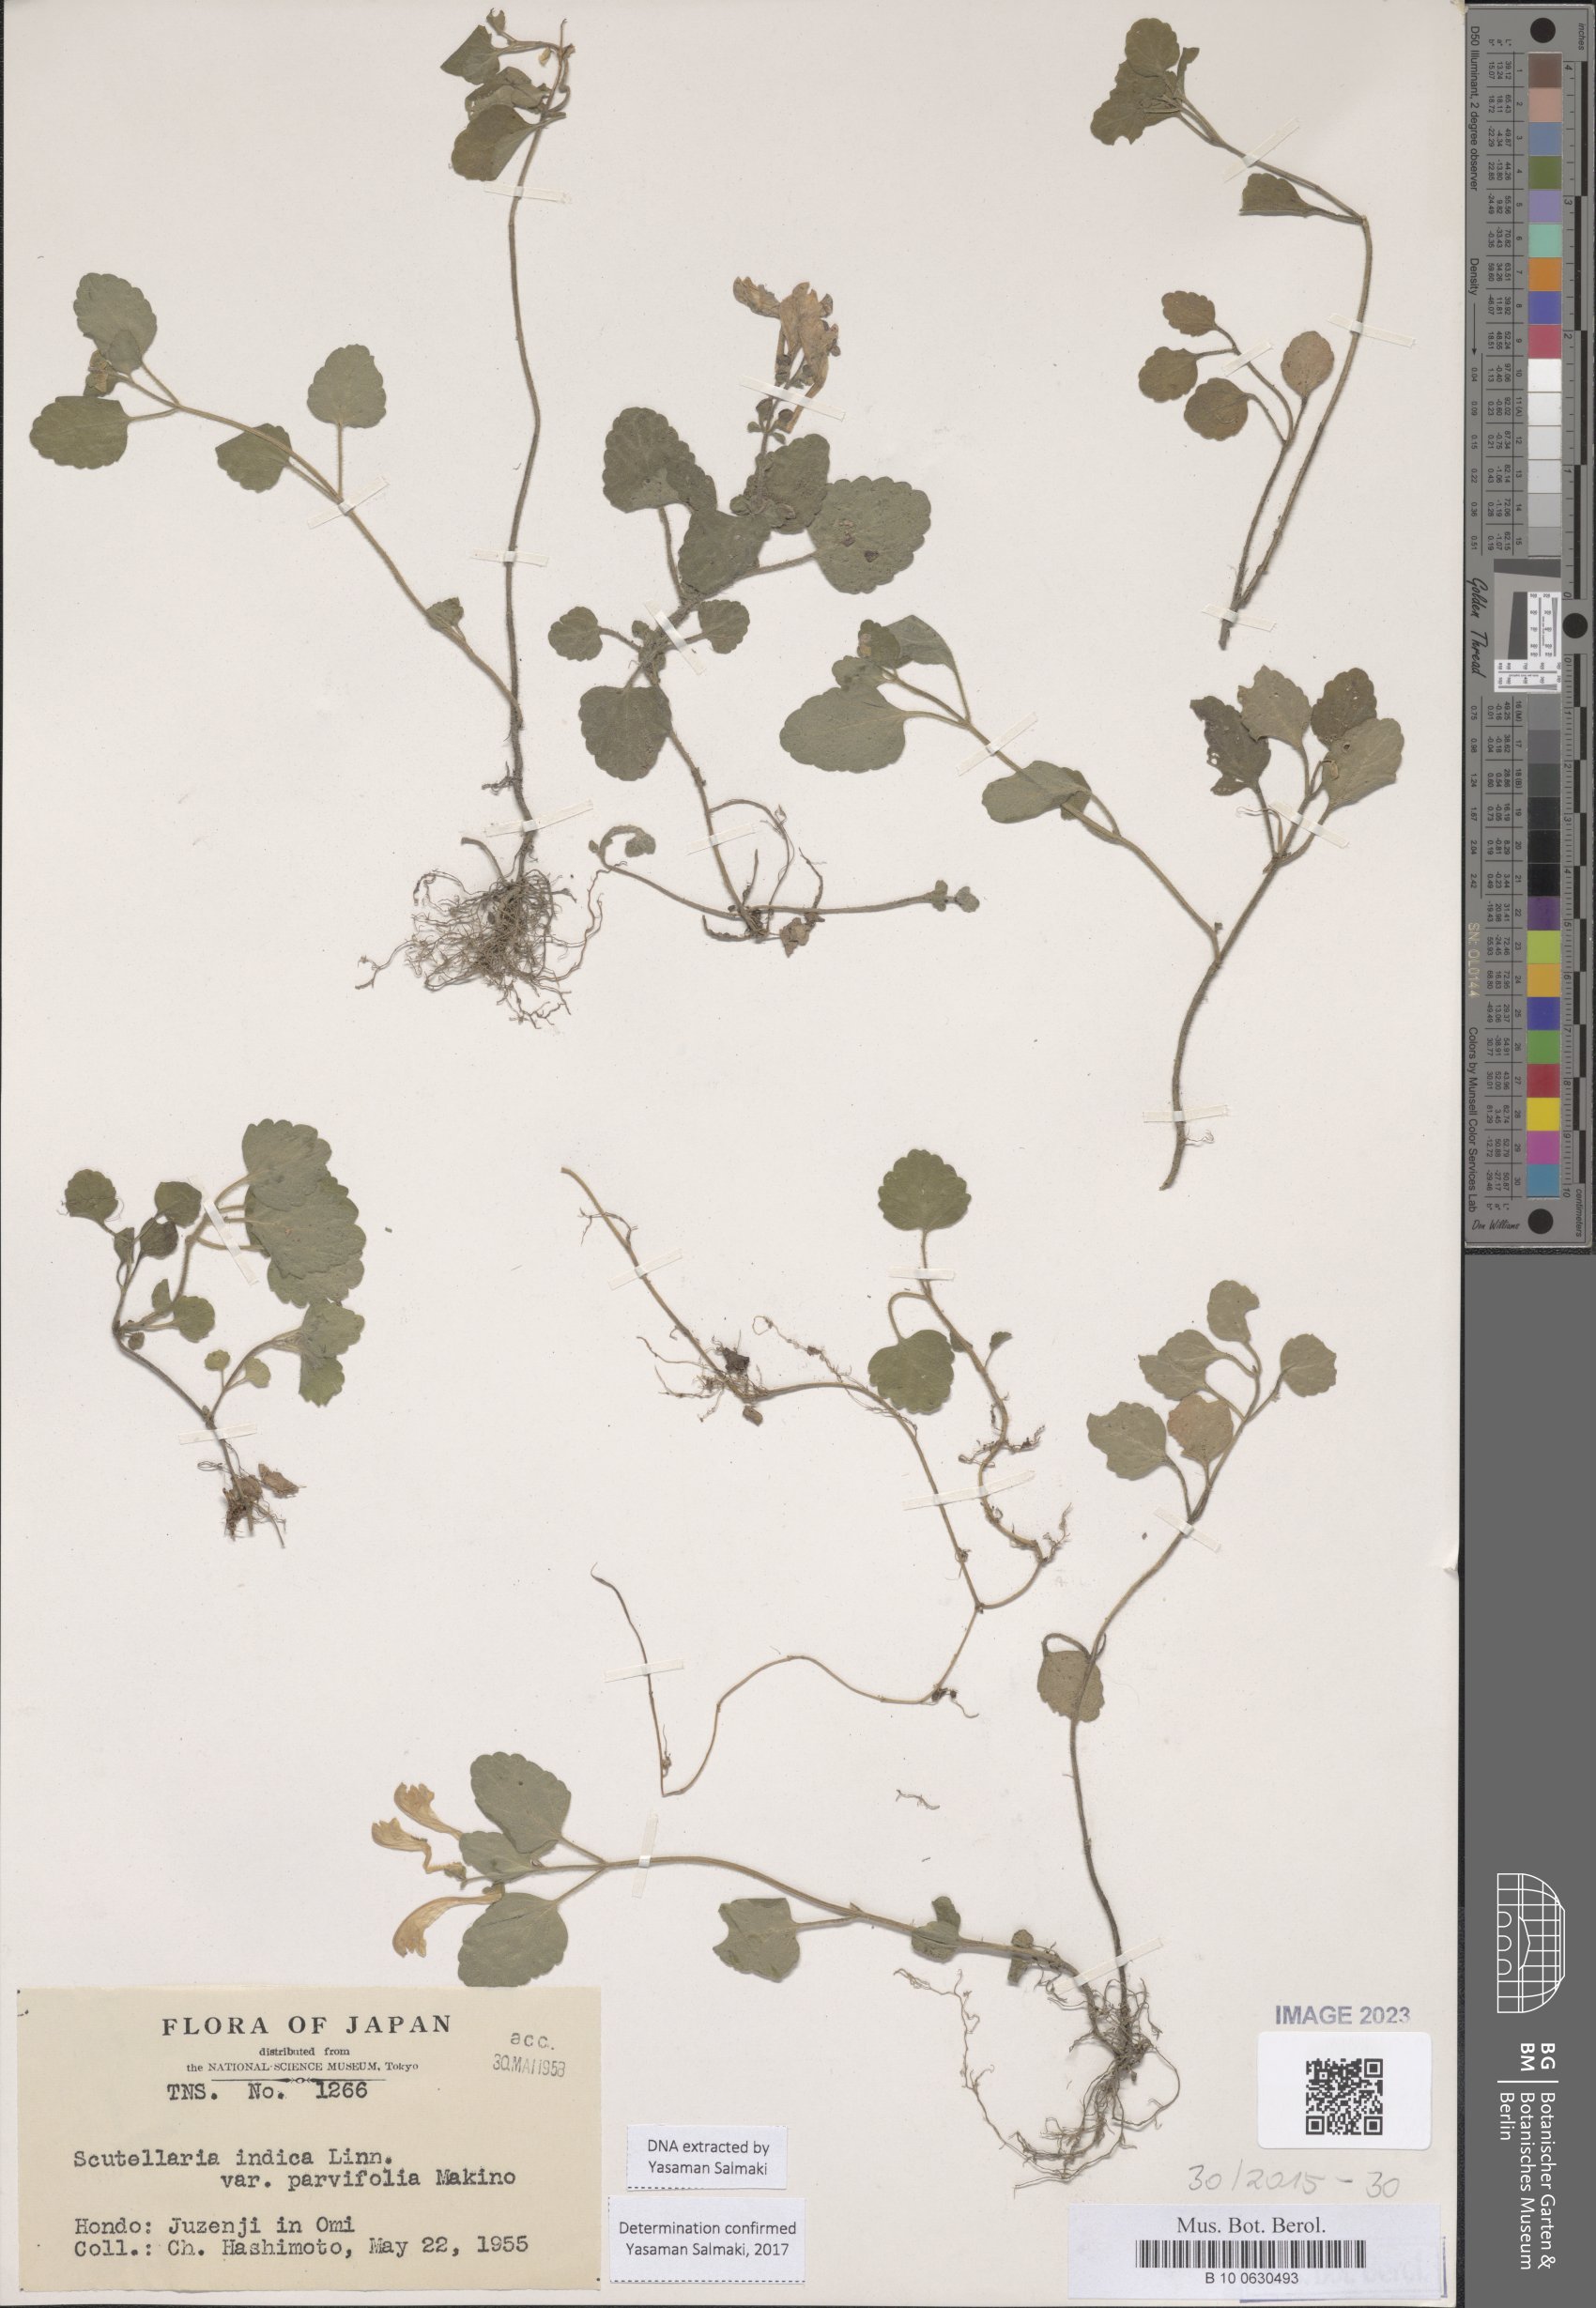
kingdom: Plantae
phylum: Tracheophyta
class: Magnoliopsida
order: Lamiales
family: Lamiaceae
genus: Scutellaria
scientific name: Scutellaria indica
